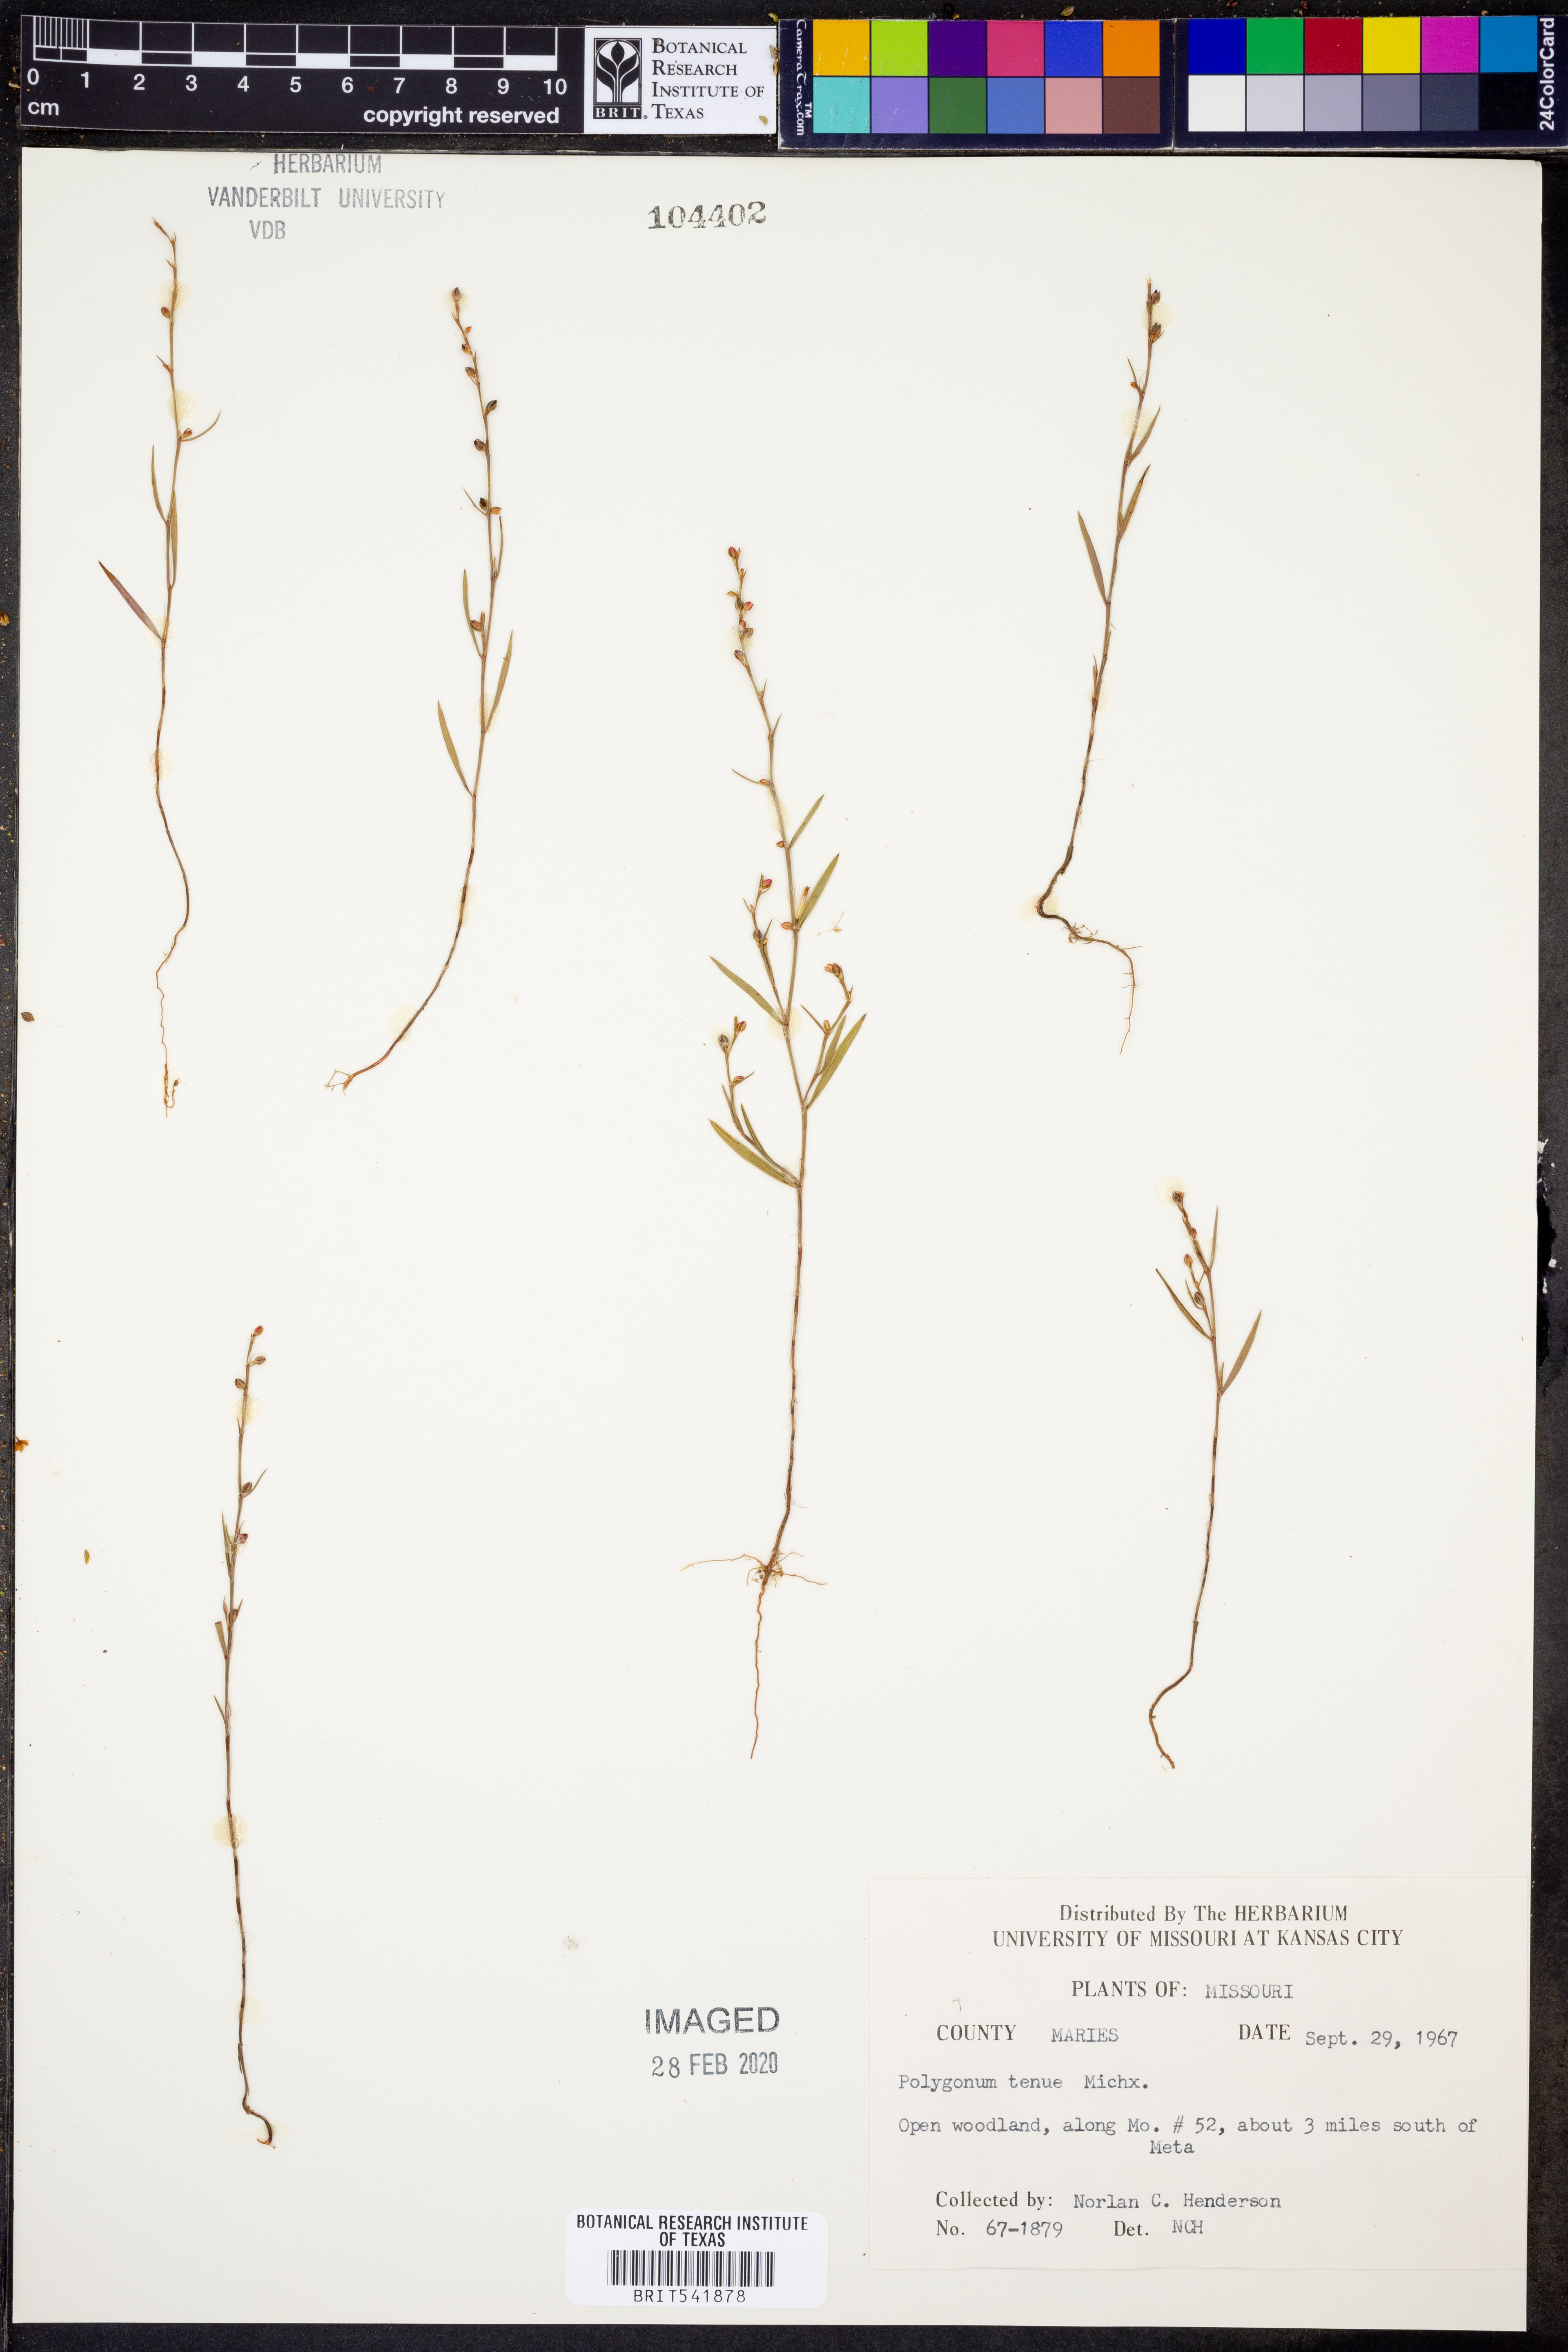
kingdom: Plantae
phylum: Tracheophyta
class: Magnoliopsida
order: Caryophyllales
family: Polygonaceae
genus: Polygonum
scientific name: Polygonum tenue
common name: Pleat-leaved knotweed
